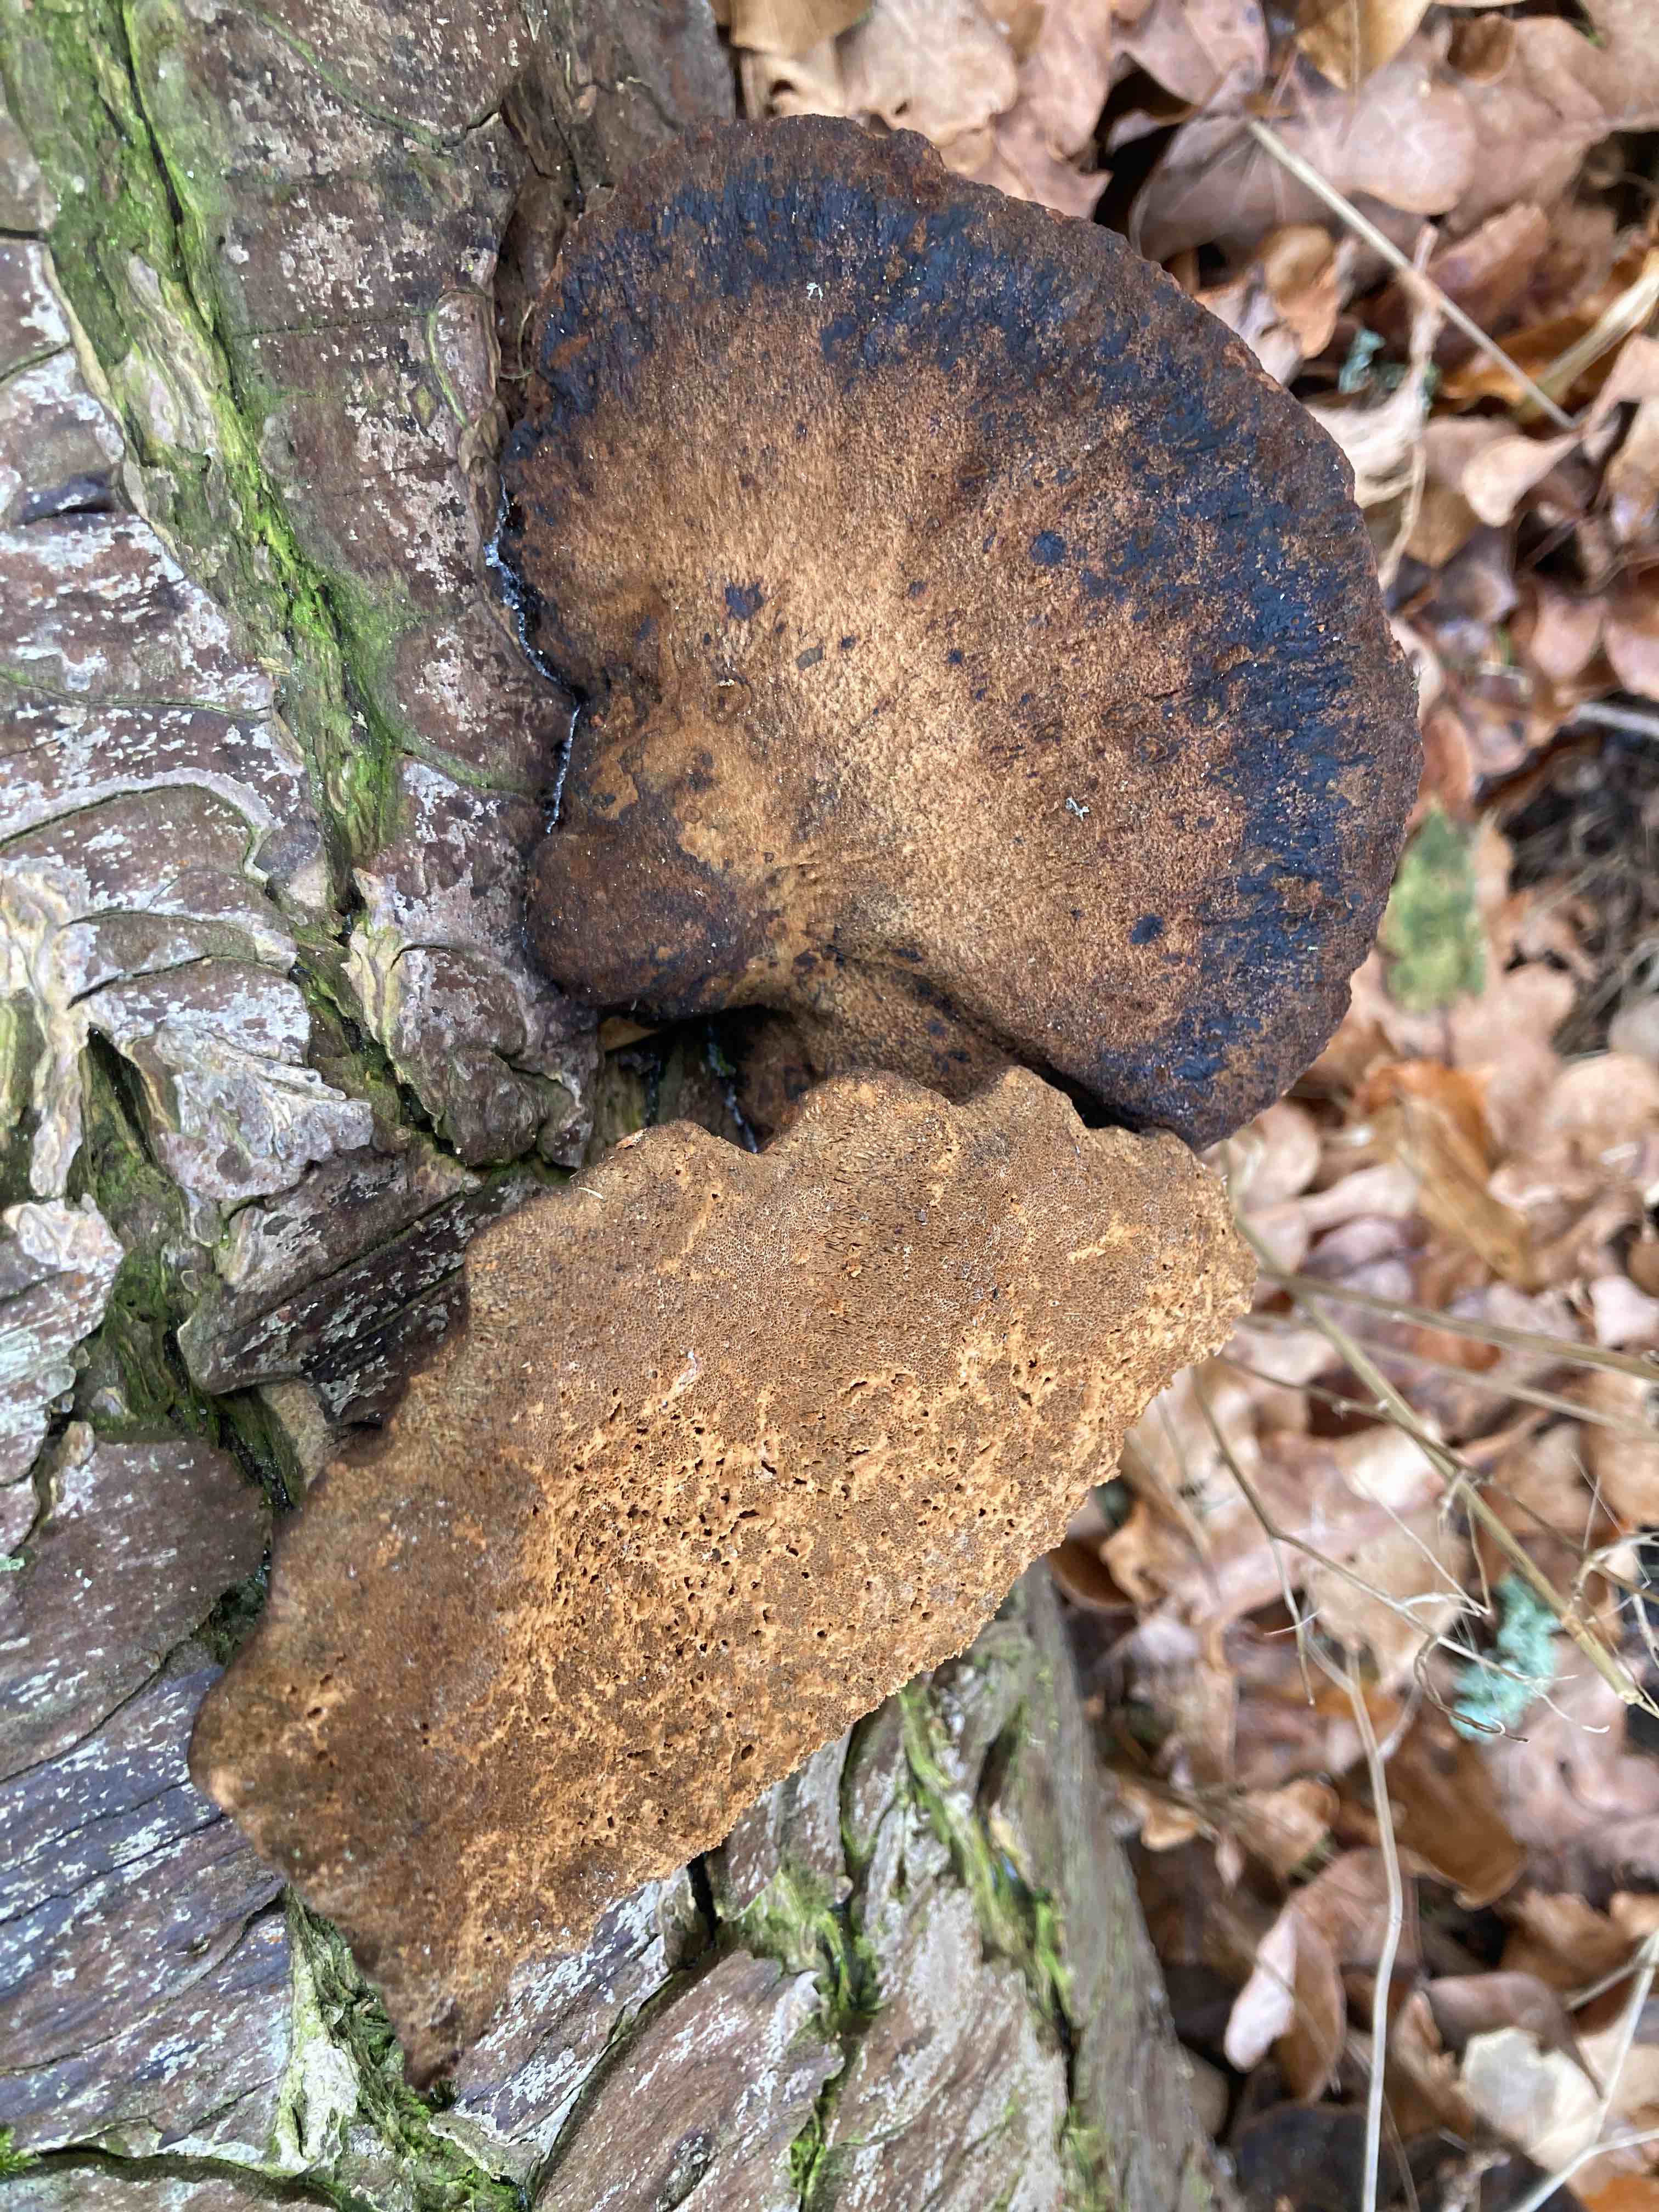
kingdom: Fungi
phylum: Basidiomycota
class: Agaricomycetes
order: Polyporales
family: Ischnodermataceae
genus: Ischnoderma
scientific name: Ischnoderma benzoinum
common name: gran-tjæreporesvamp
